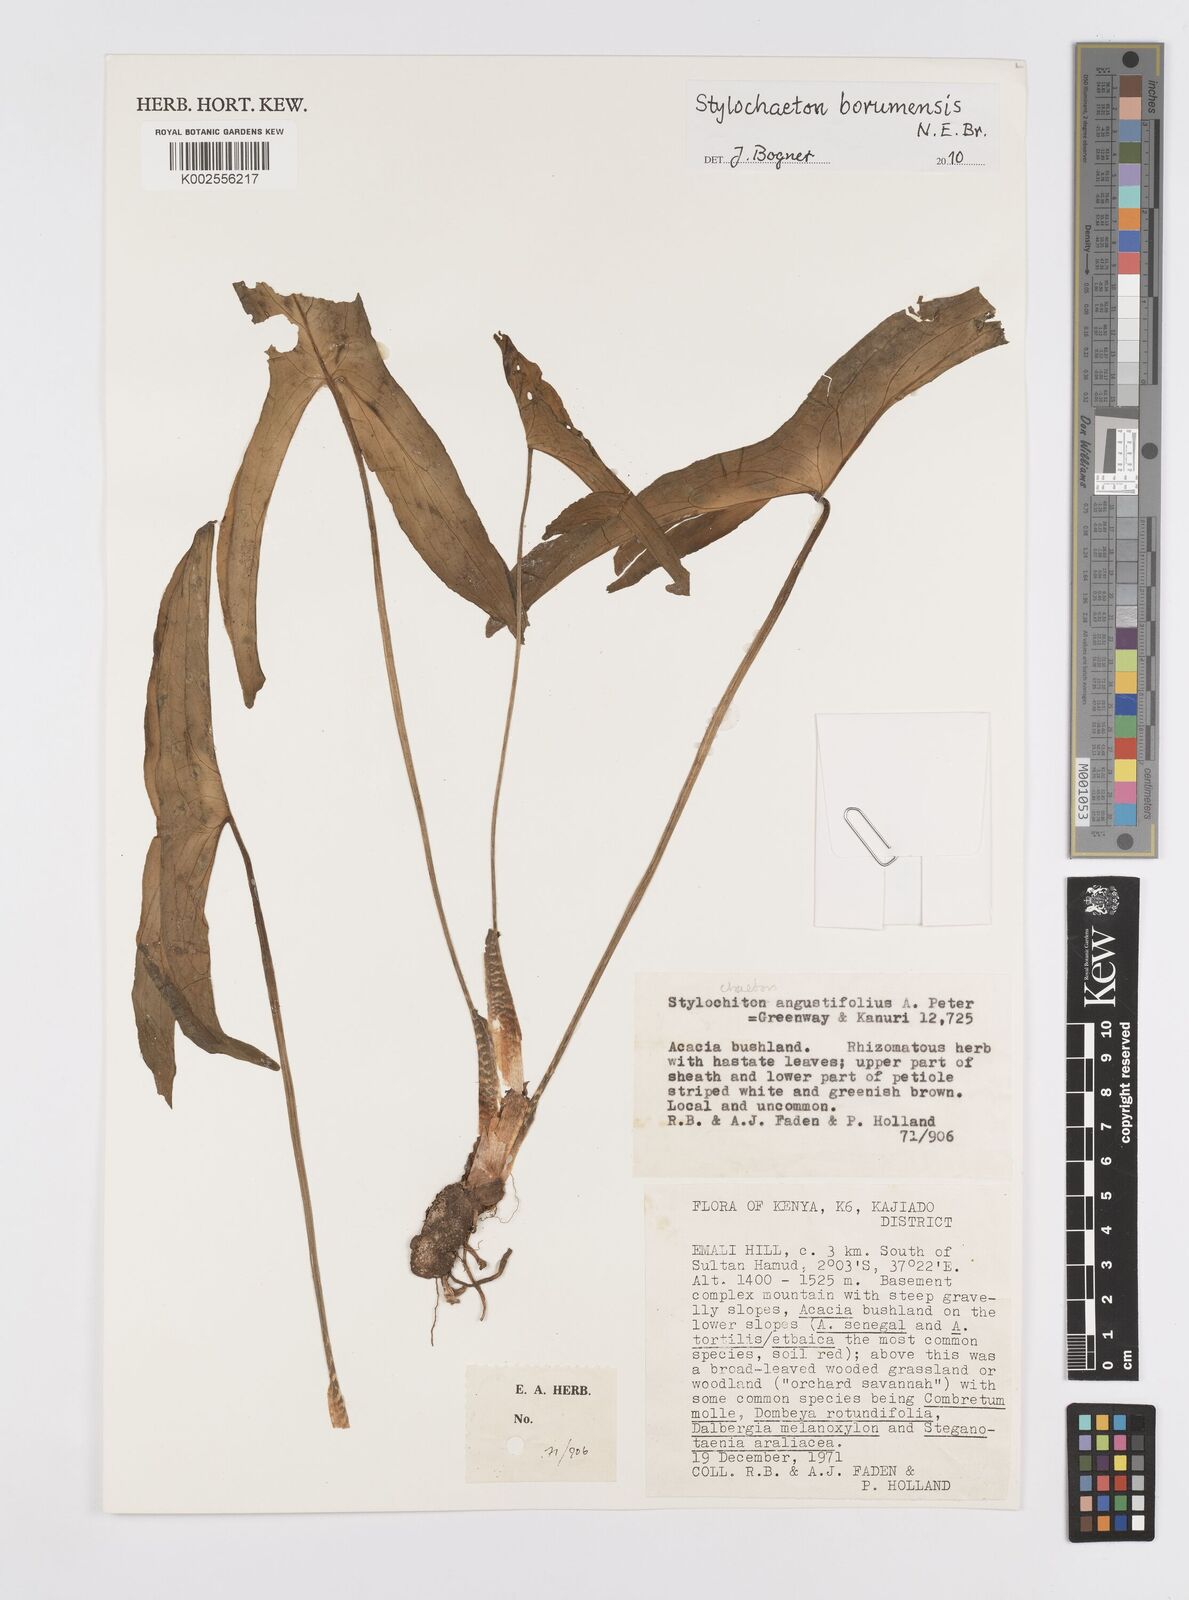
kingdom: Plantae
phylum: Tracheophyta
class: Liliopsida
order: Alismatales
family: Araceae
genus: Stylochaeton
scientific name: Stylochaeton borumense
